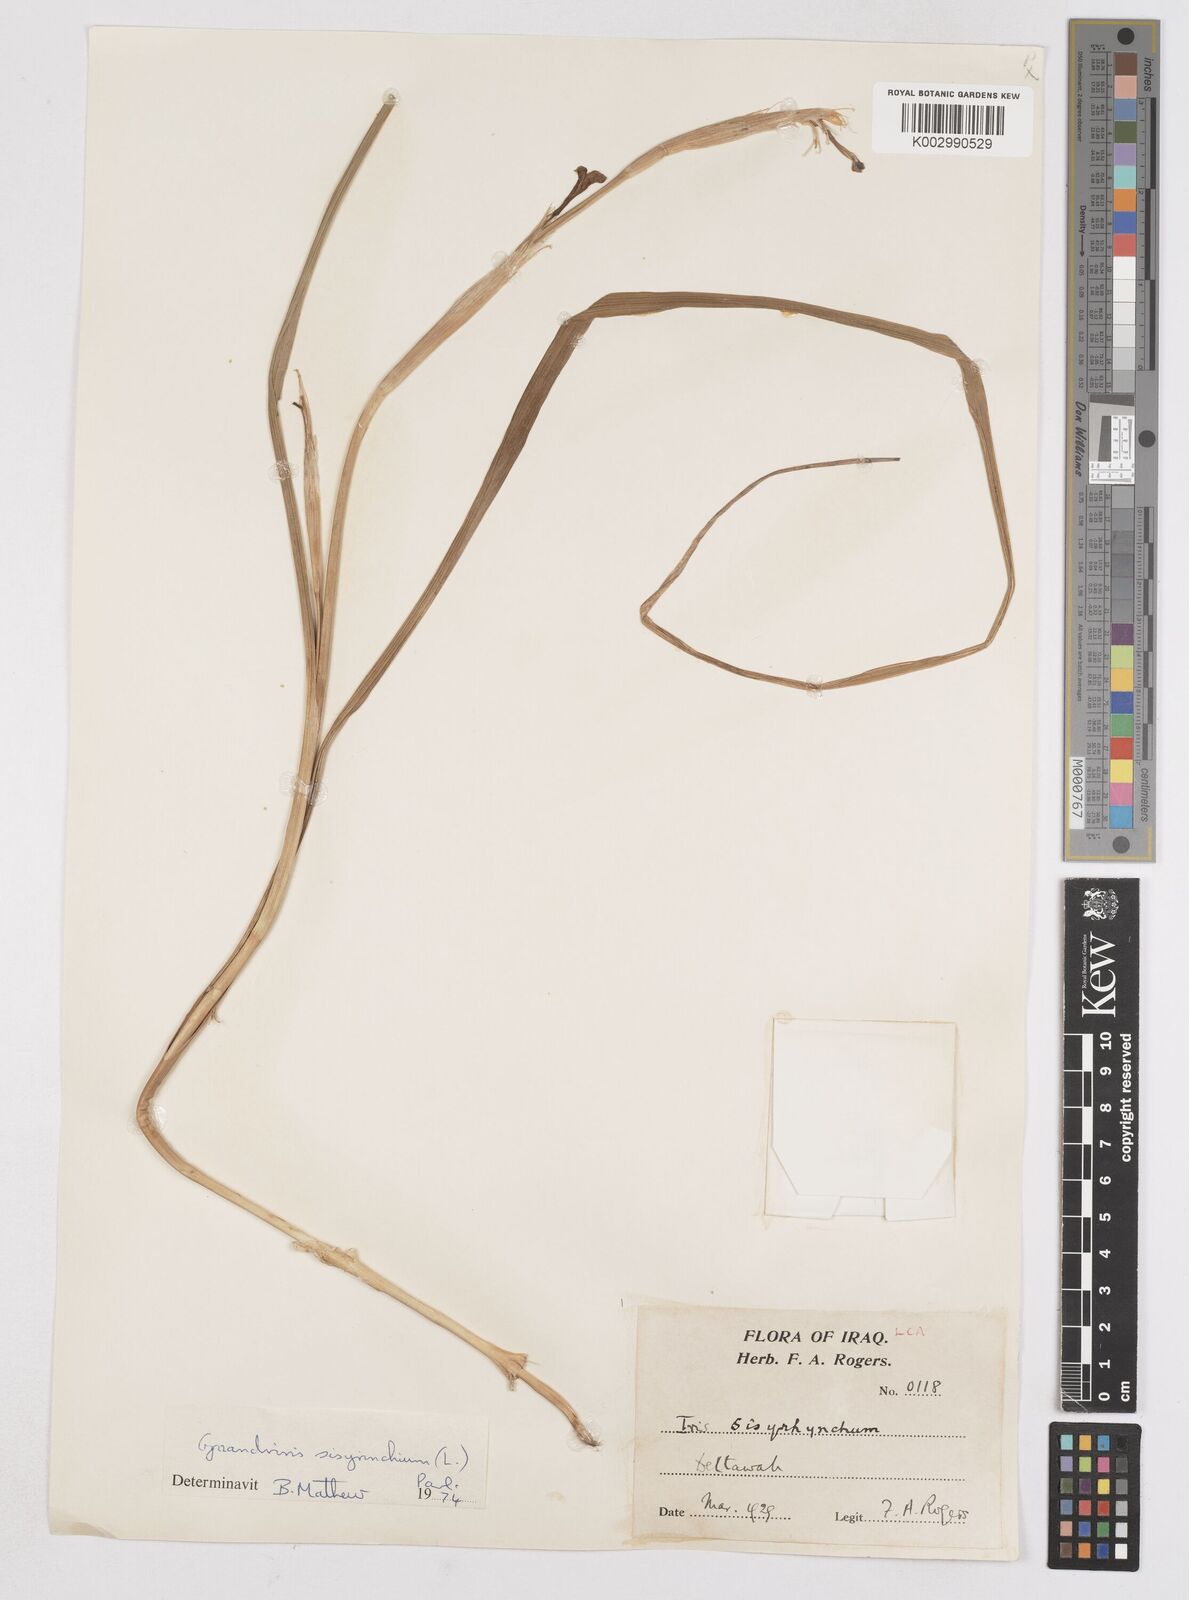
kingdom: Plantae
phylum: Tracheophyta
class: Liliopsida
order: Asparagales
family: Iridaceae
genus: Moraea
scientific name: Moraea sisyrinchium
